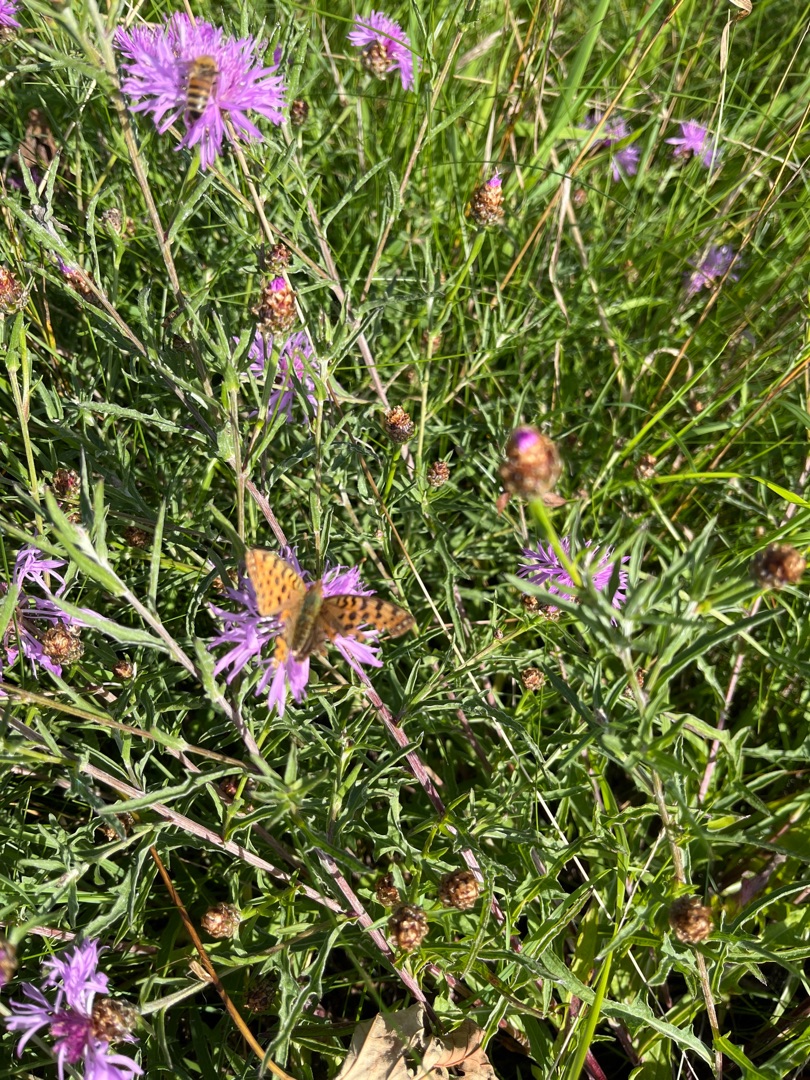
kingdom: Animalia
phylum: Arthropoda
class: Insecta
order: Lepidoptera
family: Nymphalidae
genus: Issoria
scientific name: Issoria lathonia
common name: Storplettet perlemorsommerfugl
